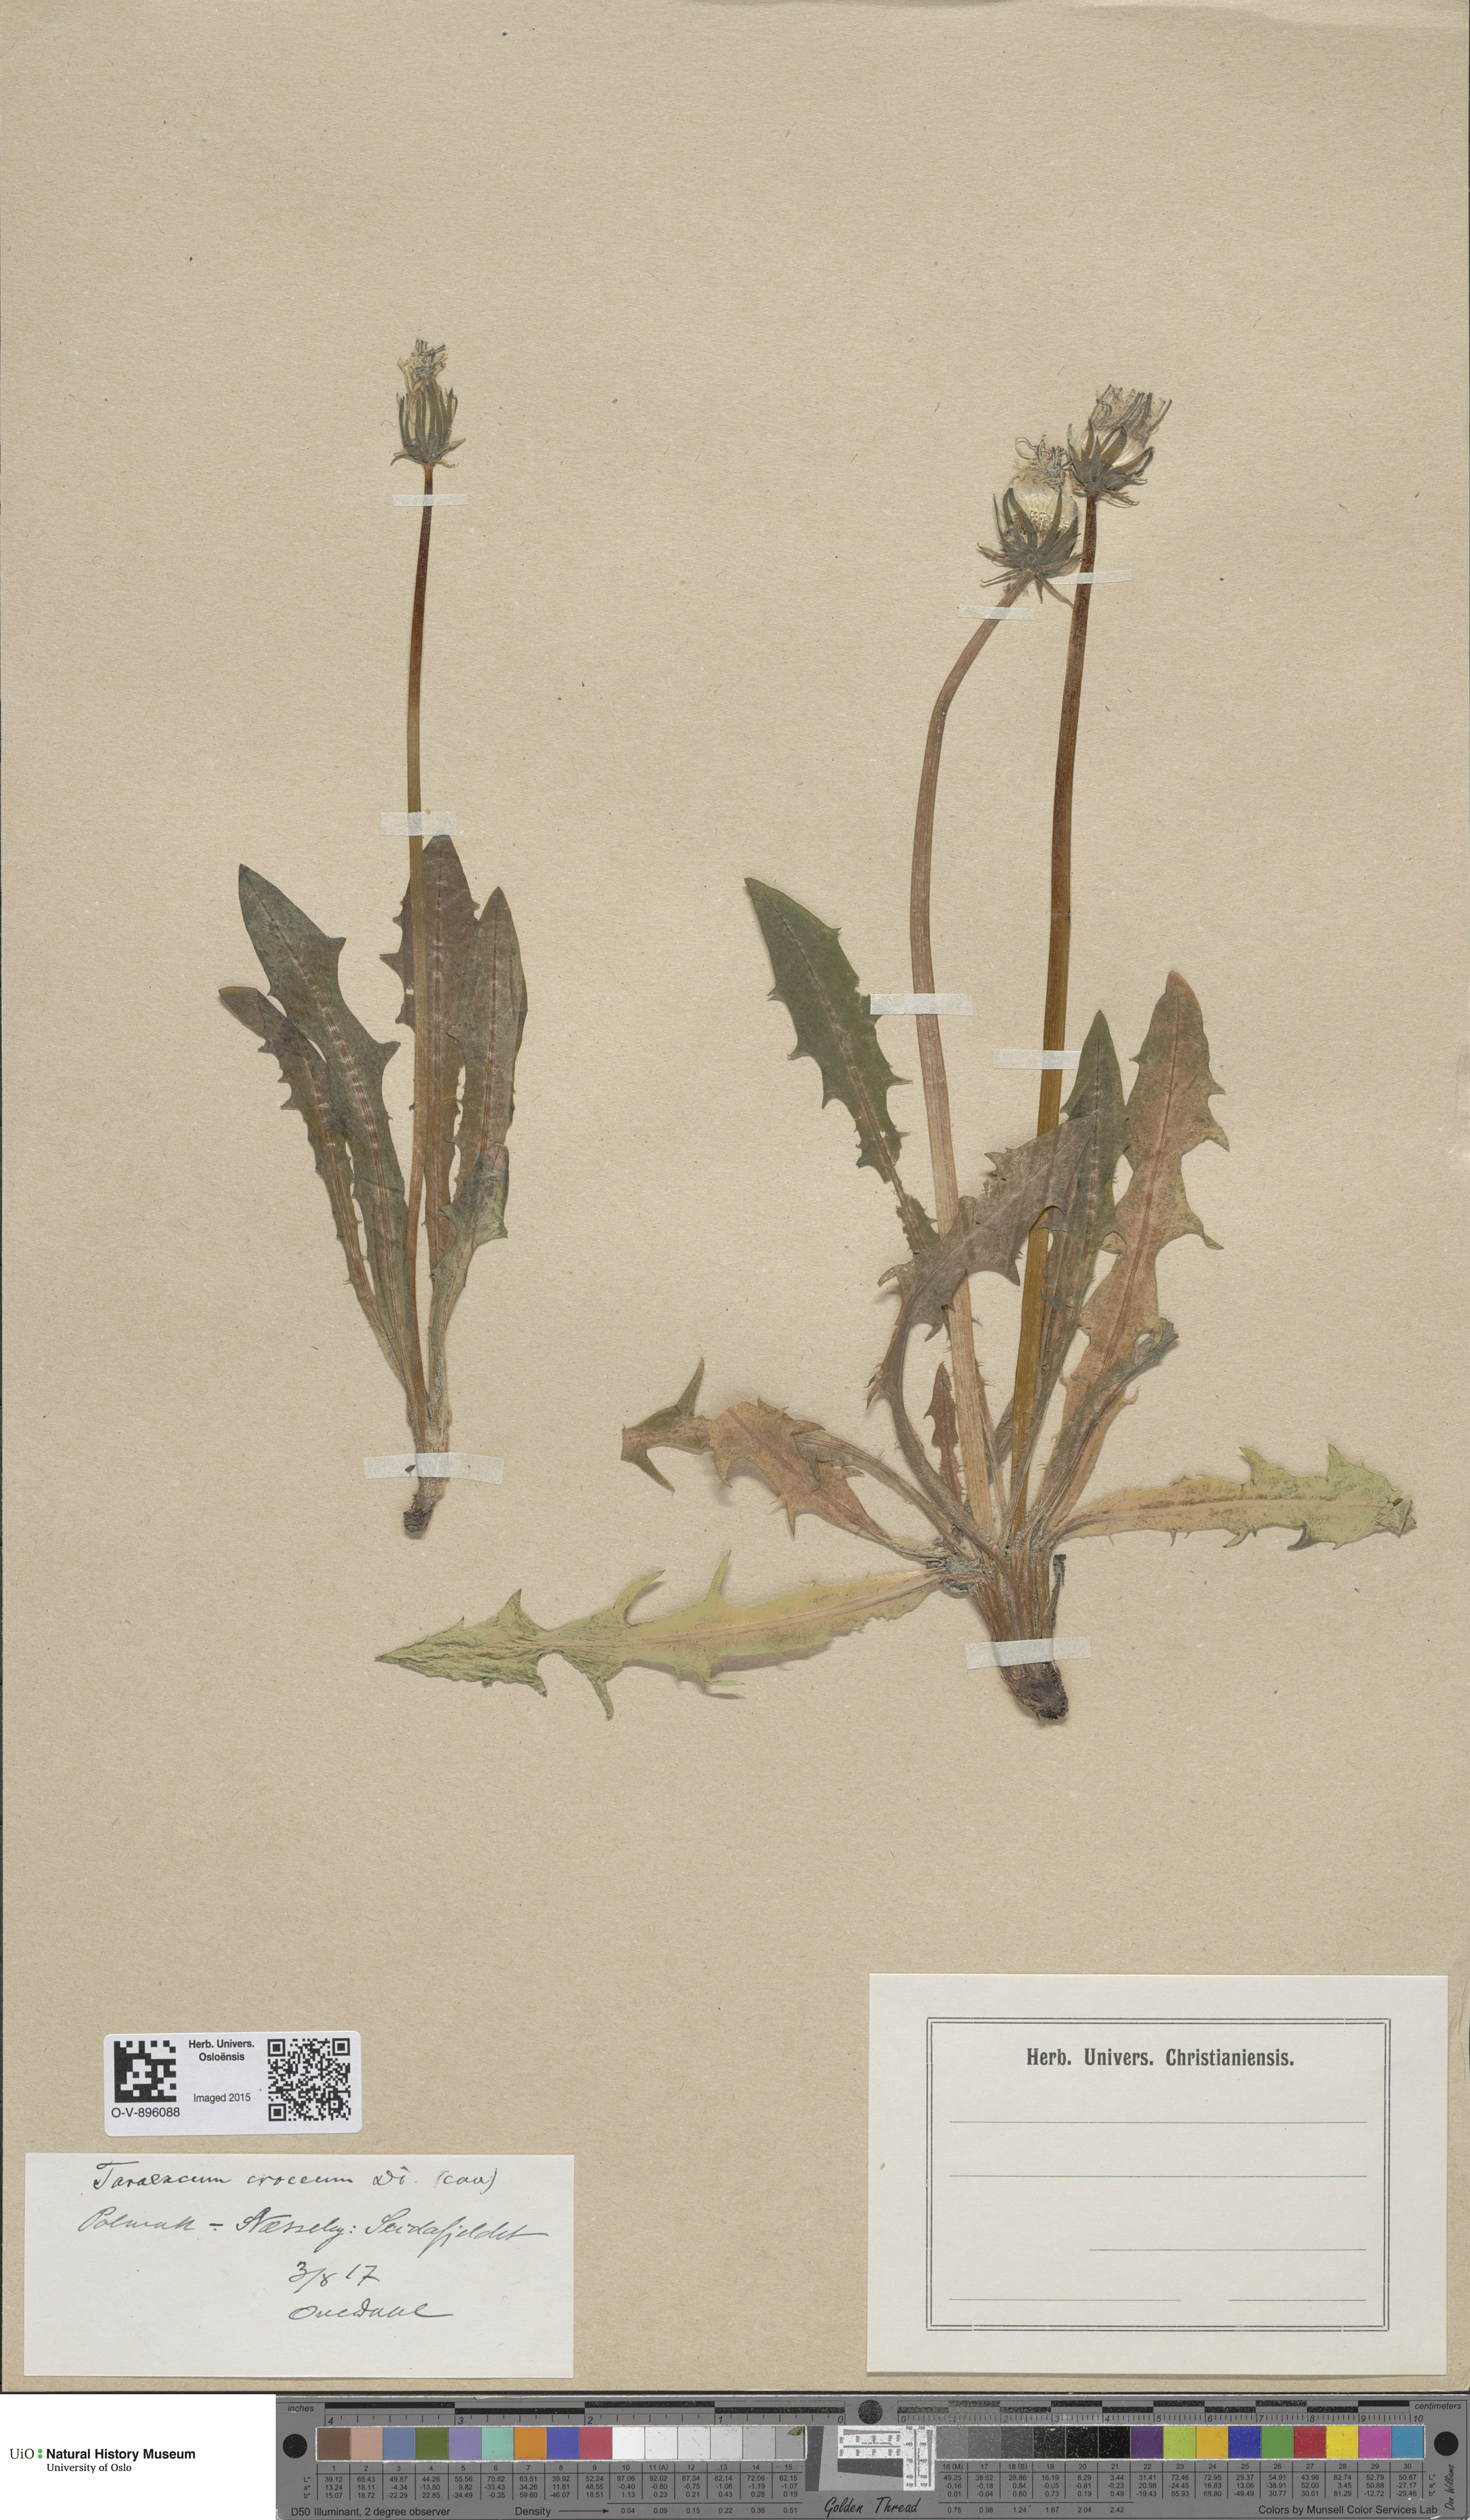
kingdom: Plantae
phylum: Tracheophyta
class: Magnoliopsida
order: Asterales
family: Asteraceae
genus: Taraxacum
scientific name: Taraxacum croceum
